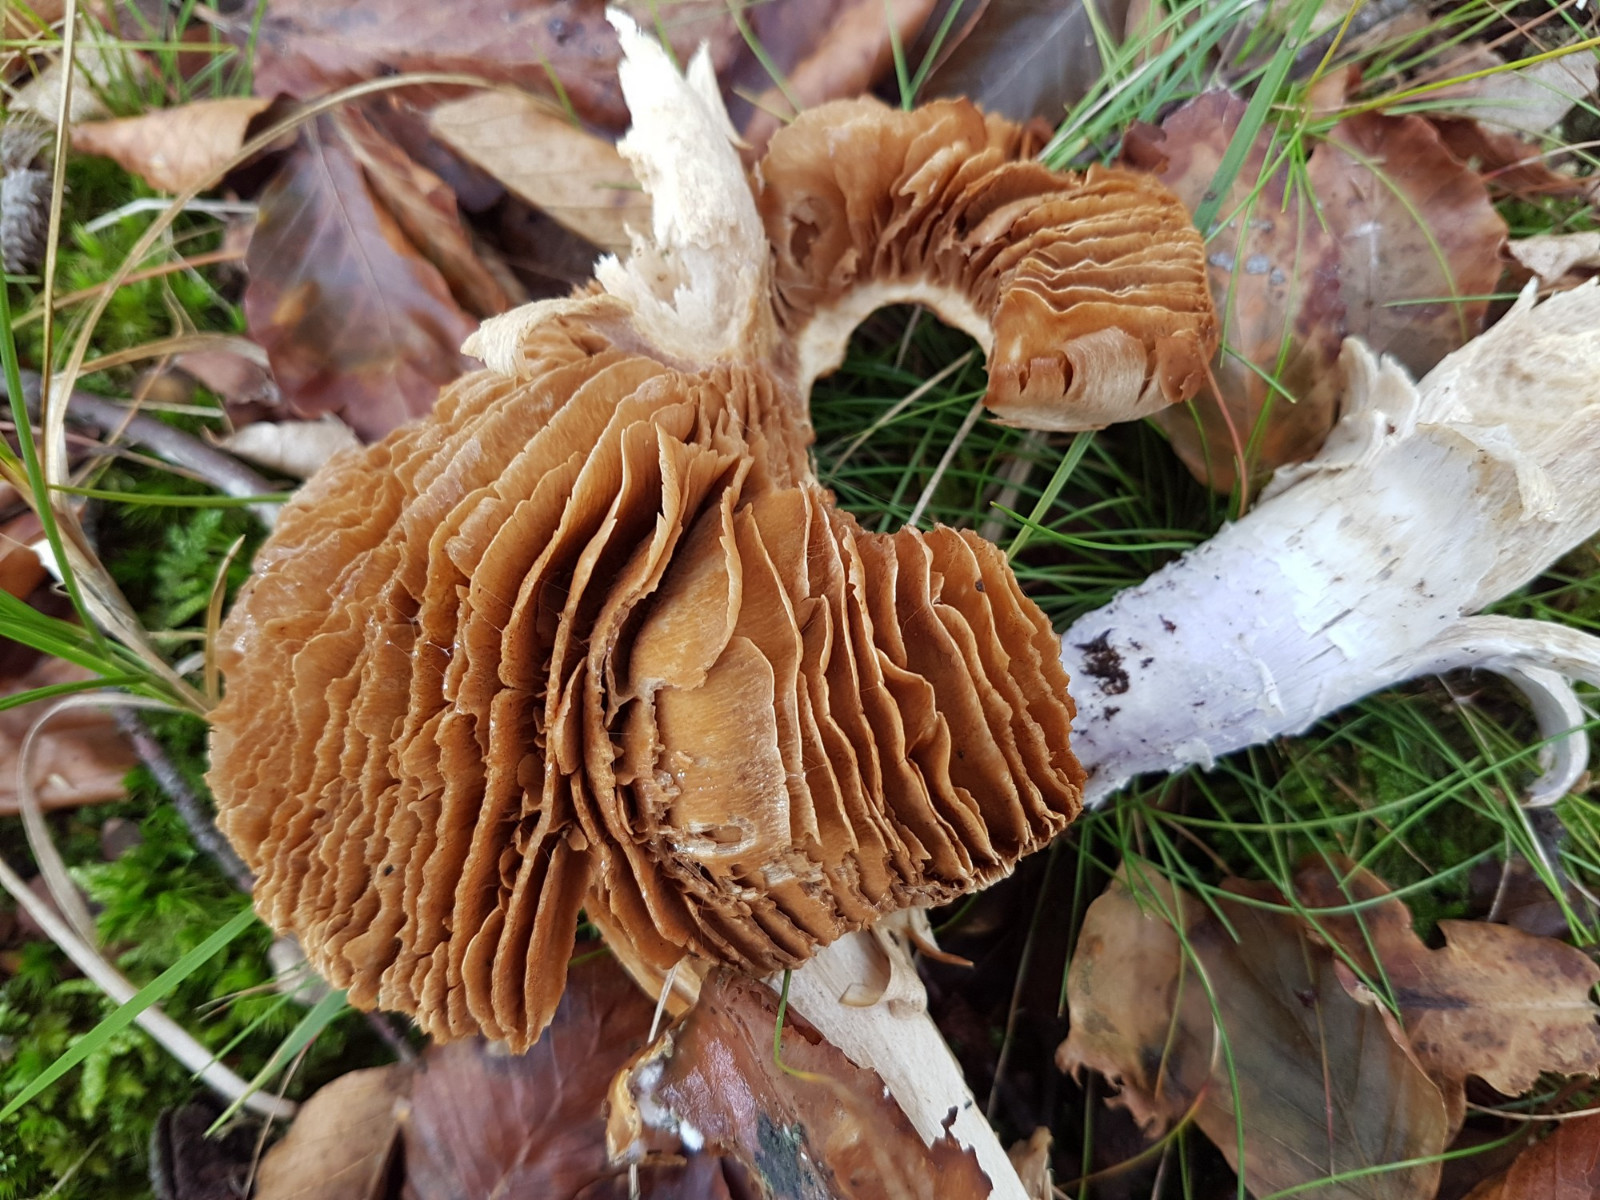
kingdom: Fungi
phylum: Basidiomycota
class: Agaricomycetes
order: Agaricales
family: Cortinariaceae
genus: Cortinarius
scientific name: Cortinarius elatior
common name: høj slørhat
